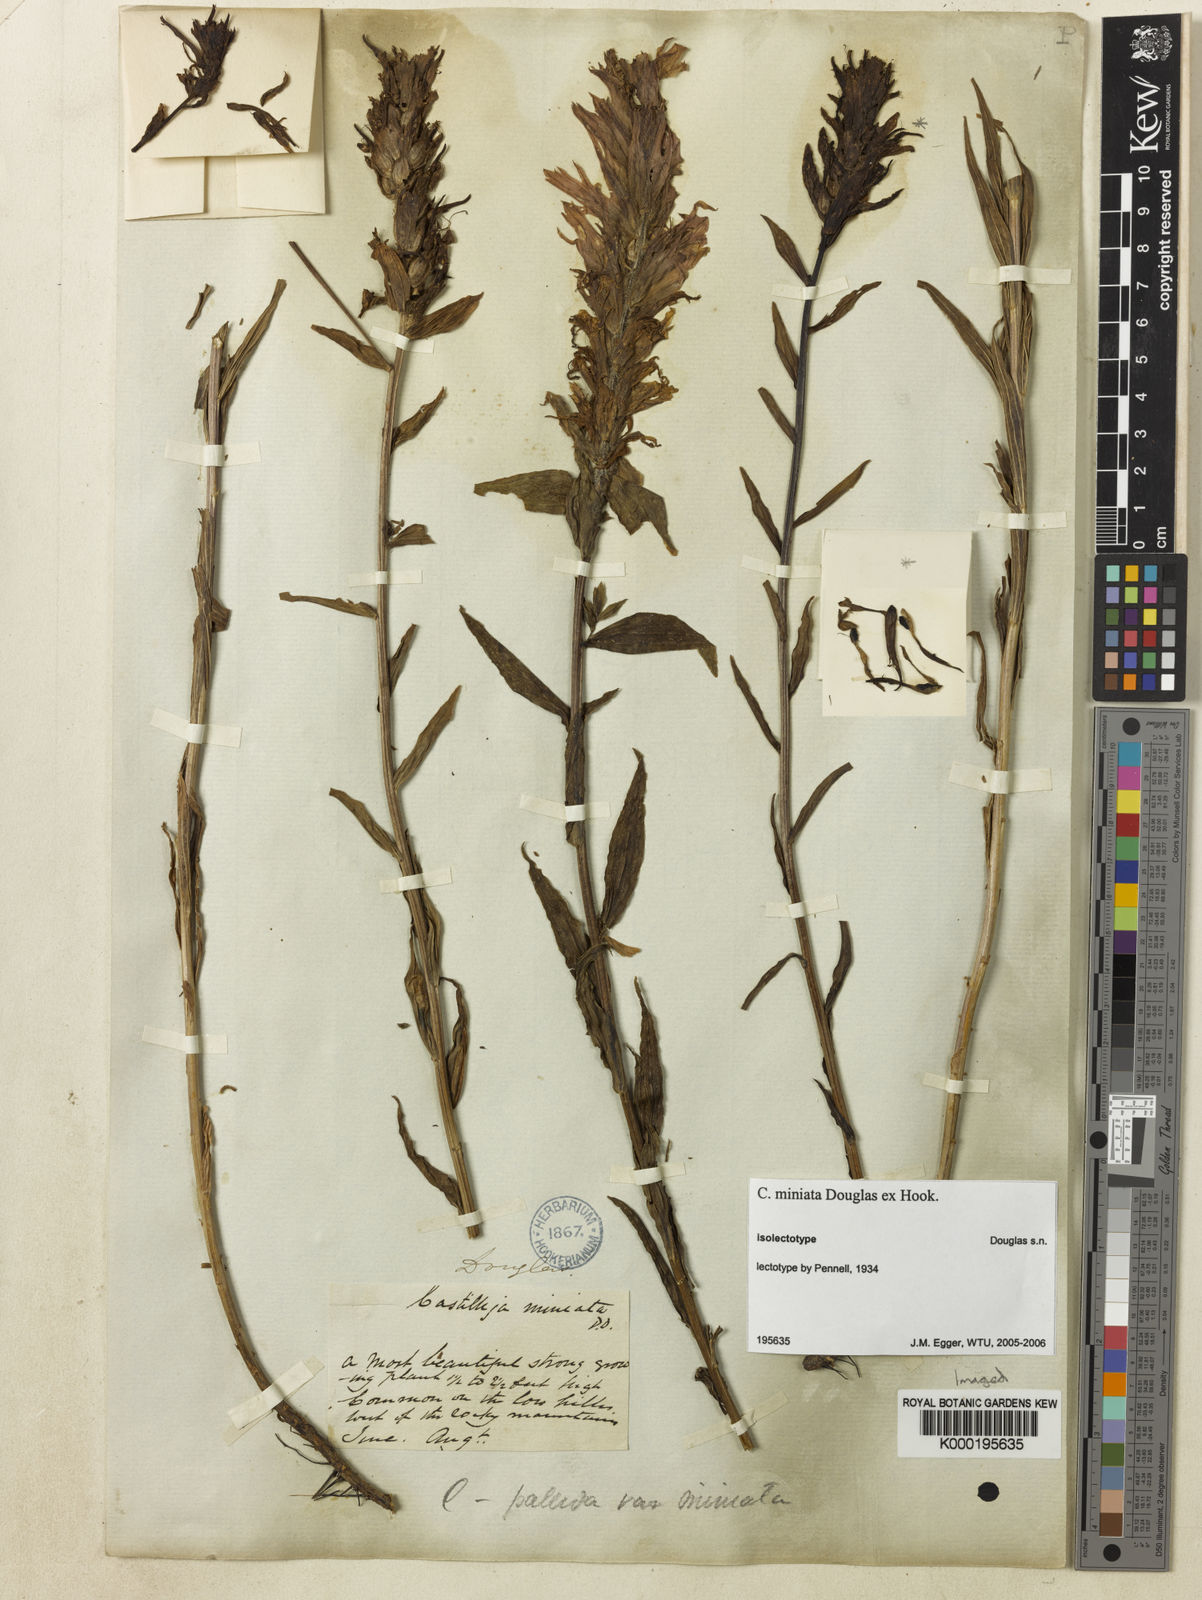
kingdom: Plantae
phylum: Tracheophyta
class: Magnoliopsida
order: Lamiales
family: Orobanchaceae
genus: Castilleja
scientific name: Castilleja
